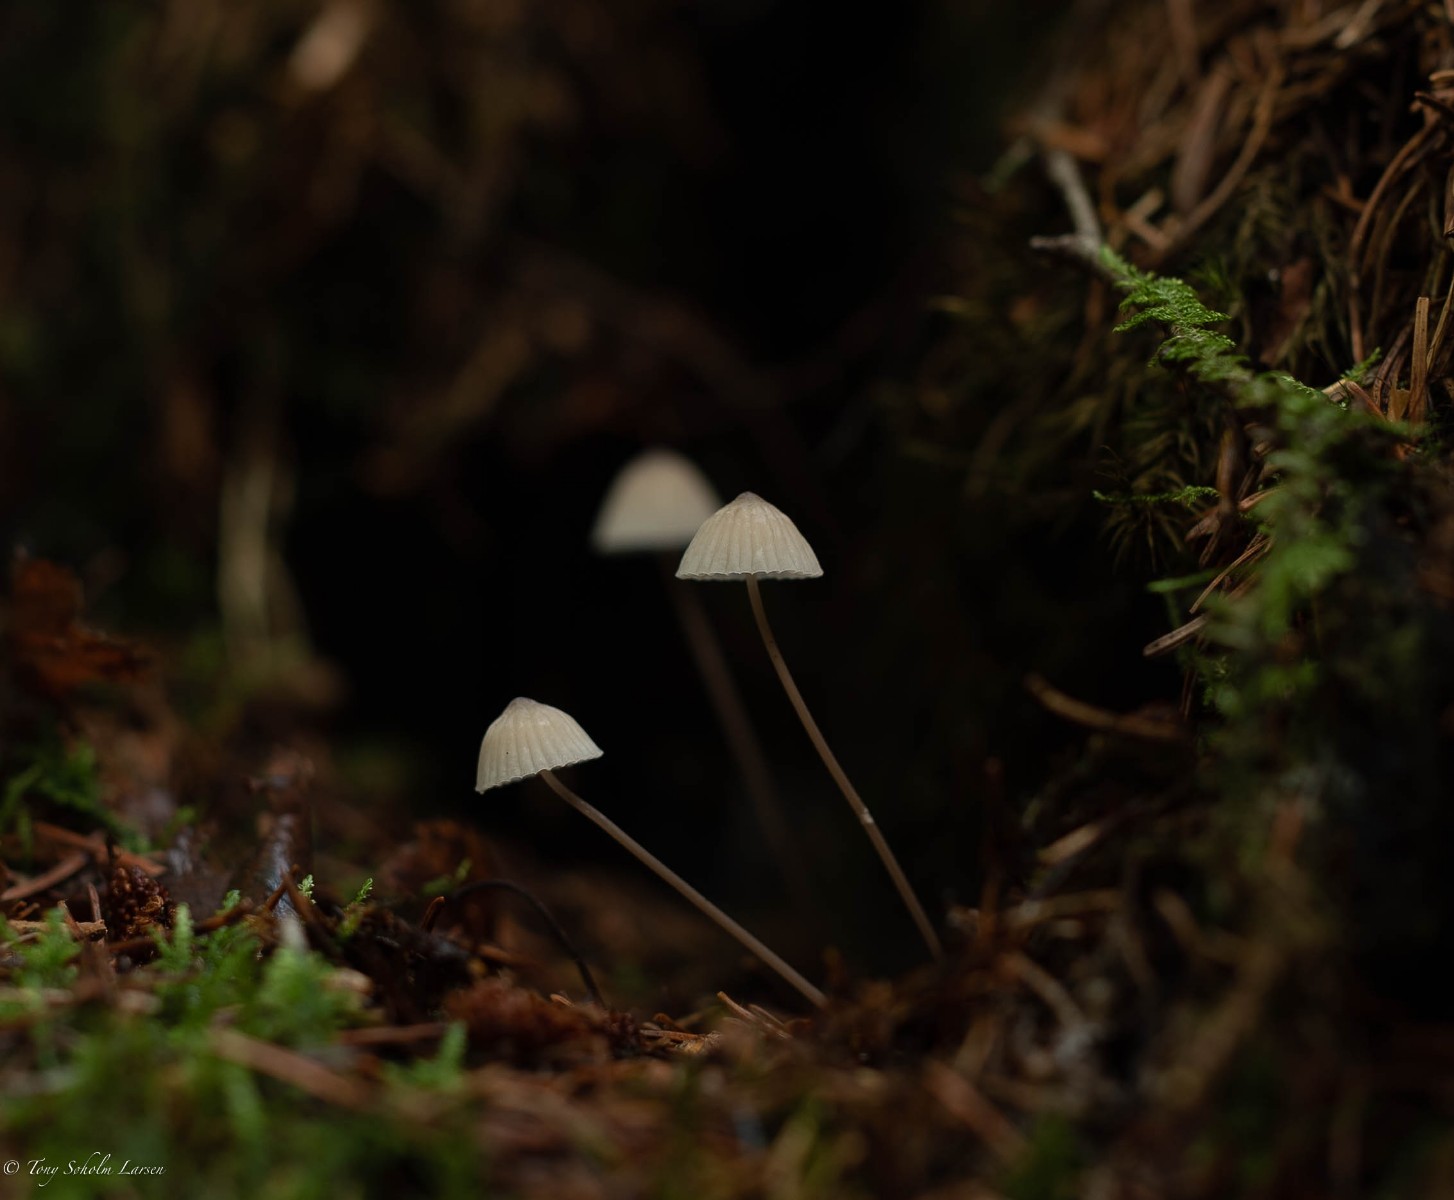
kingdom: Fungi
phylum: Basidiomycota
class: Agaricomycetes
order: Agaricales
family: Mycenaceae
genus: Mycena
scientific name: Mycena
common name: huesvamp
